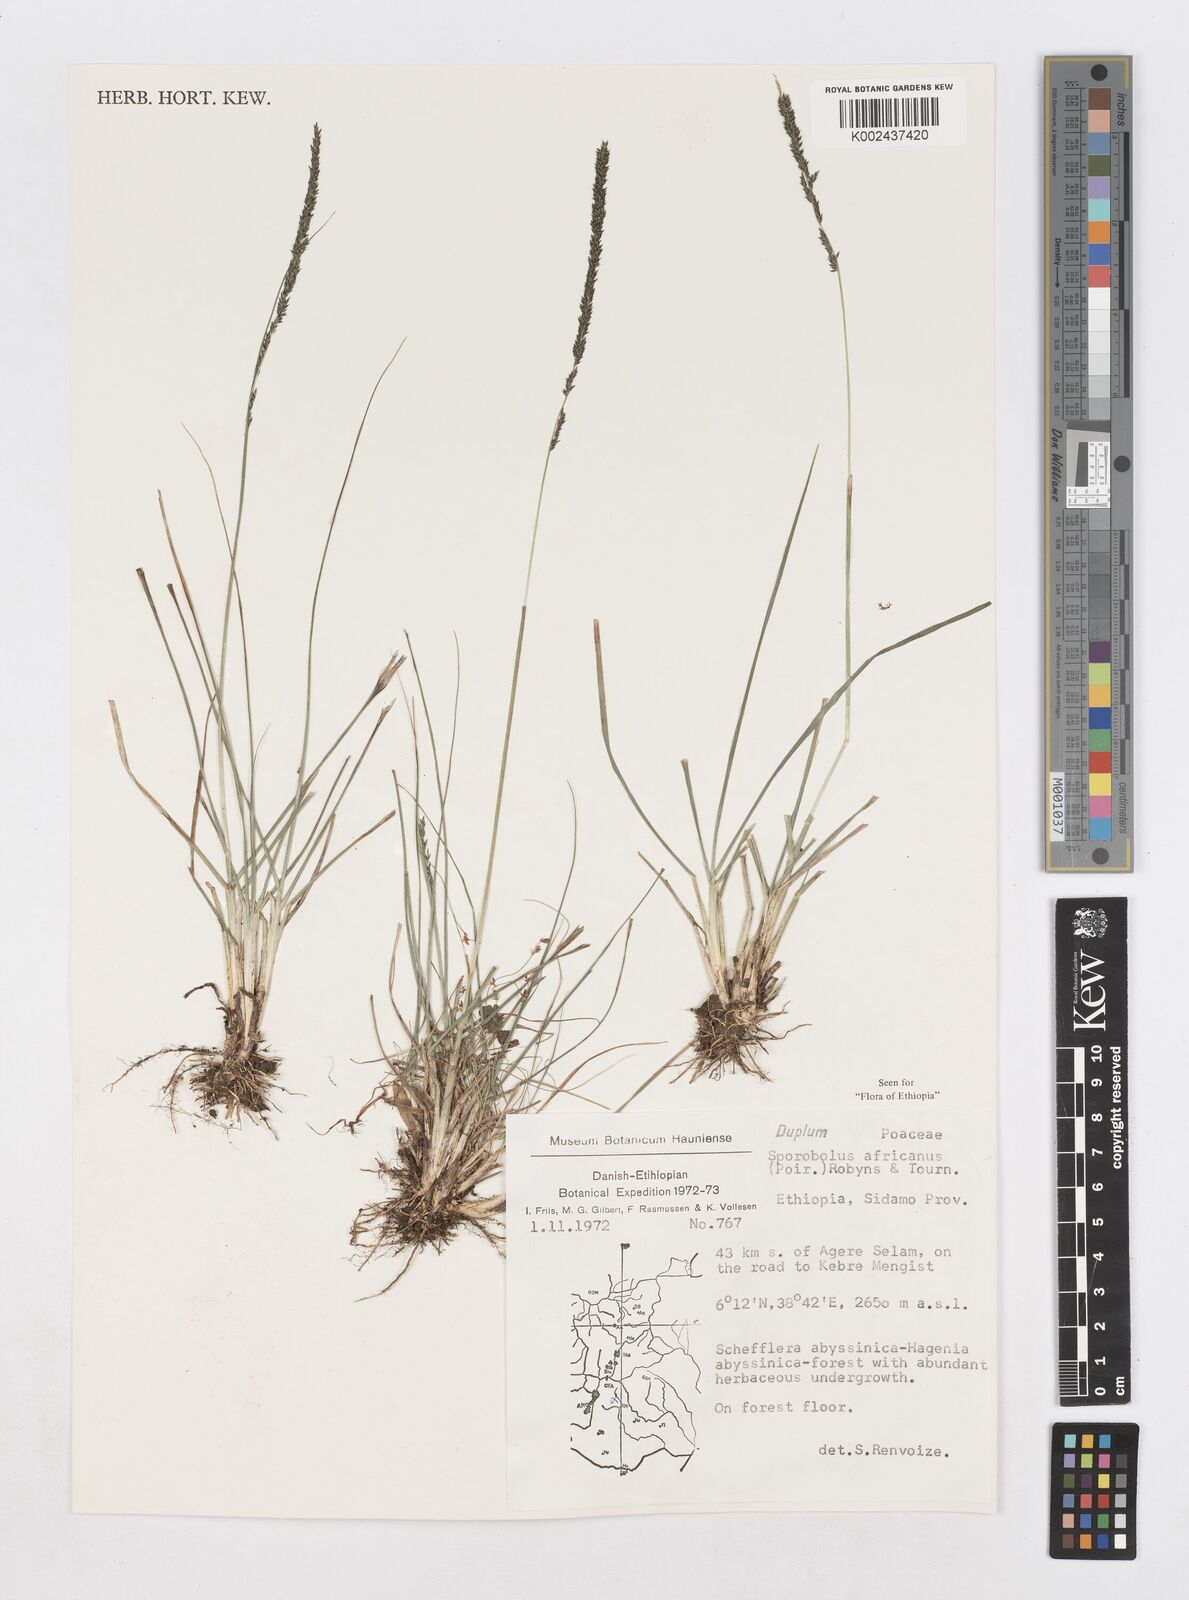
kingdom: Plantae
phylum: Tracheophyta
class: Liliopsida
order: Poales
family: Poaceae
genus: Sporobolus
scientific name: Sporobolus africanus
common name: African dropseed
